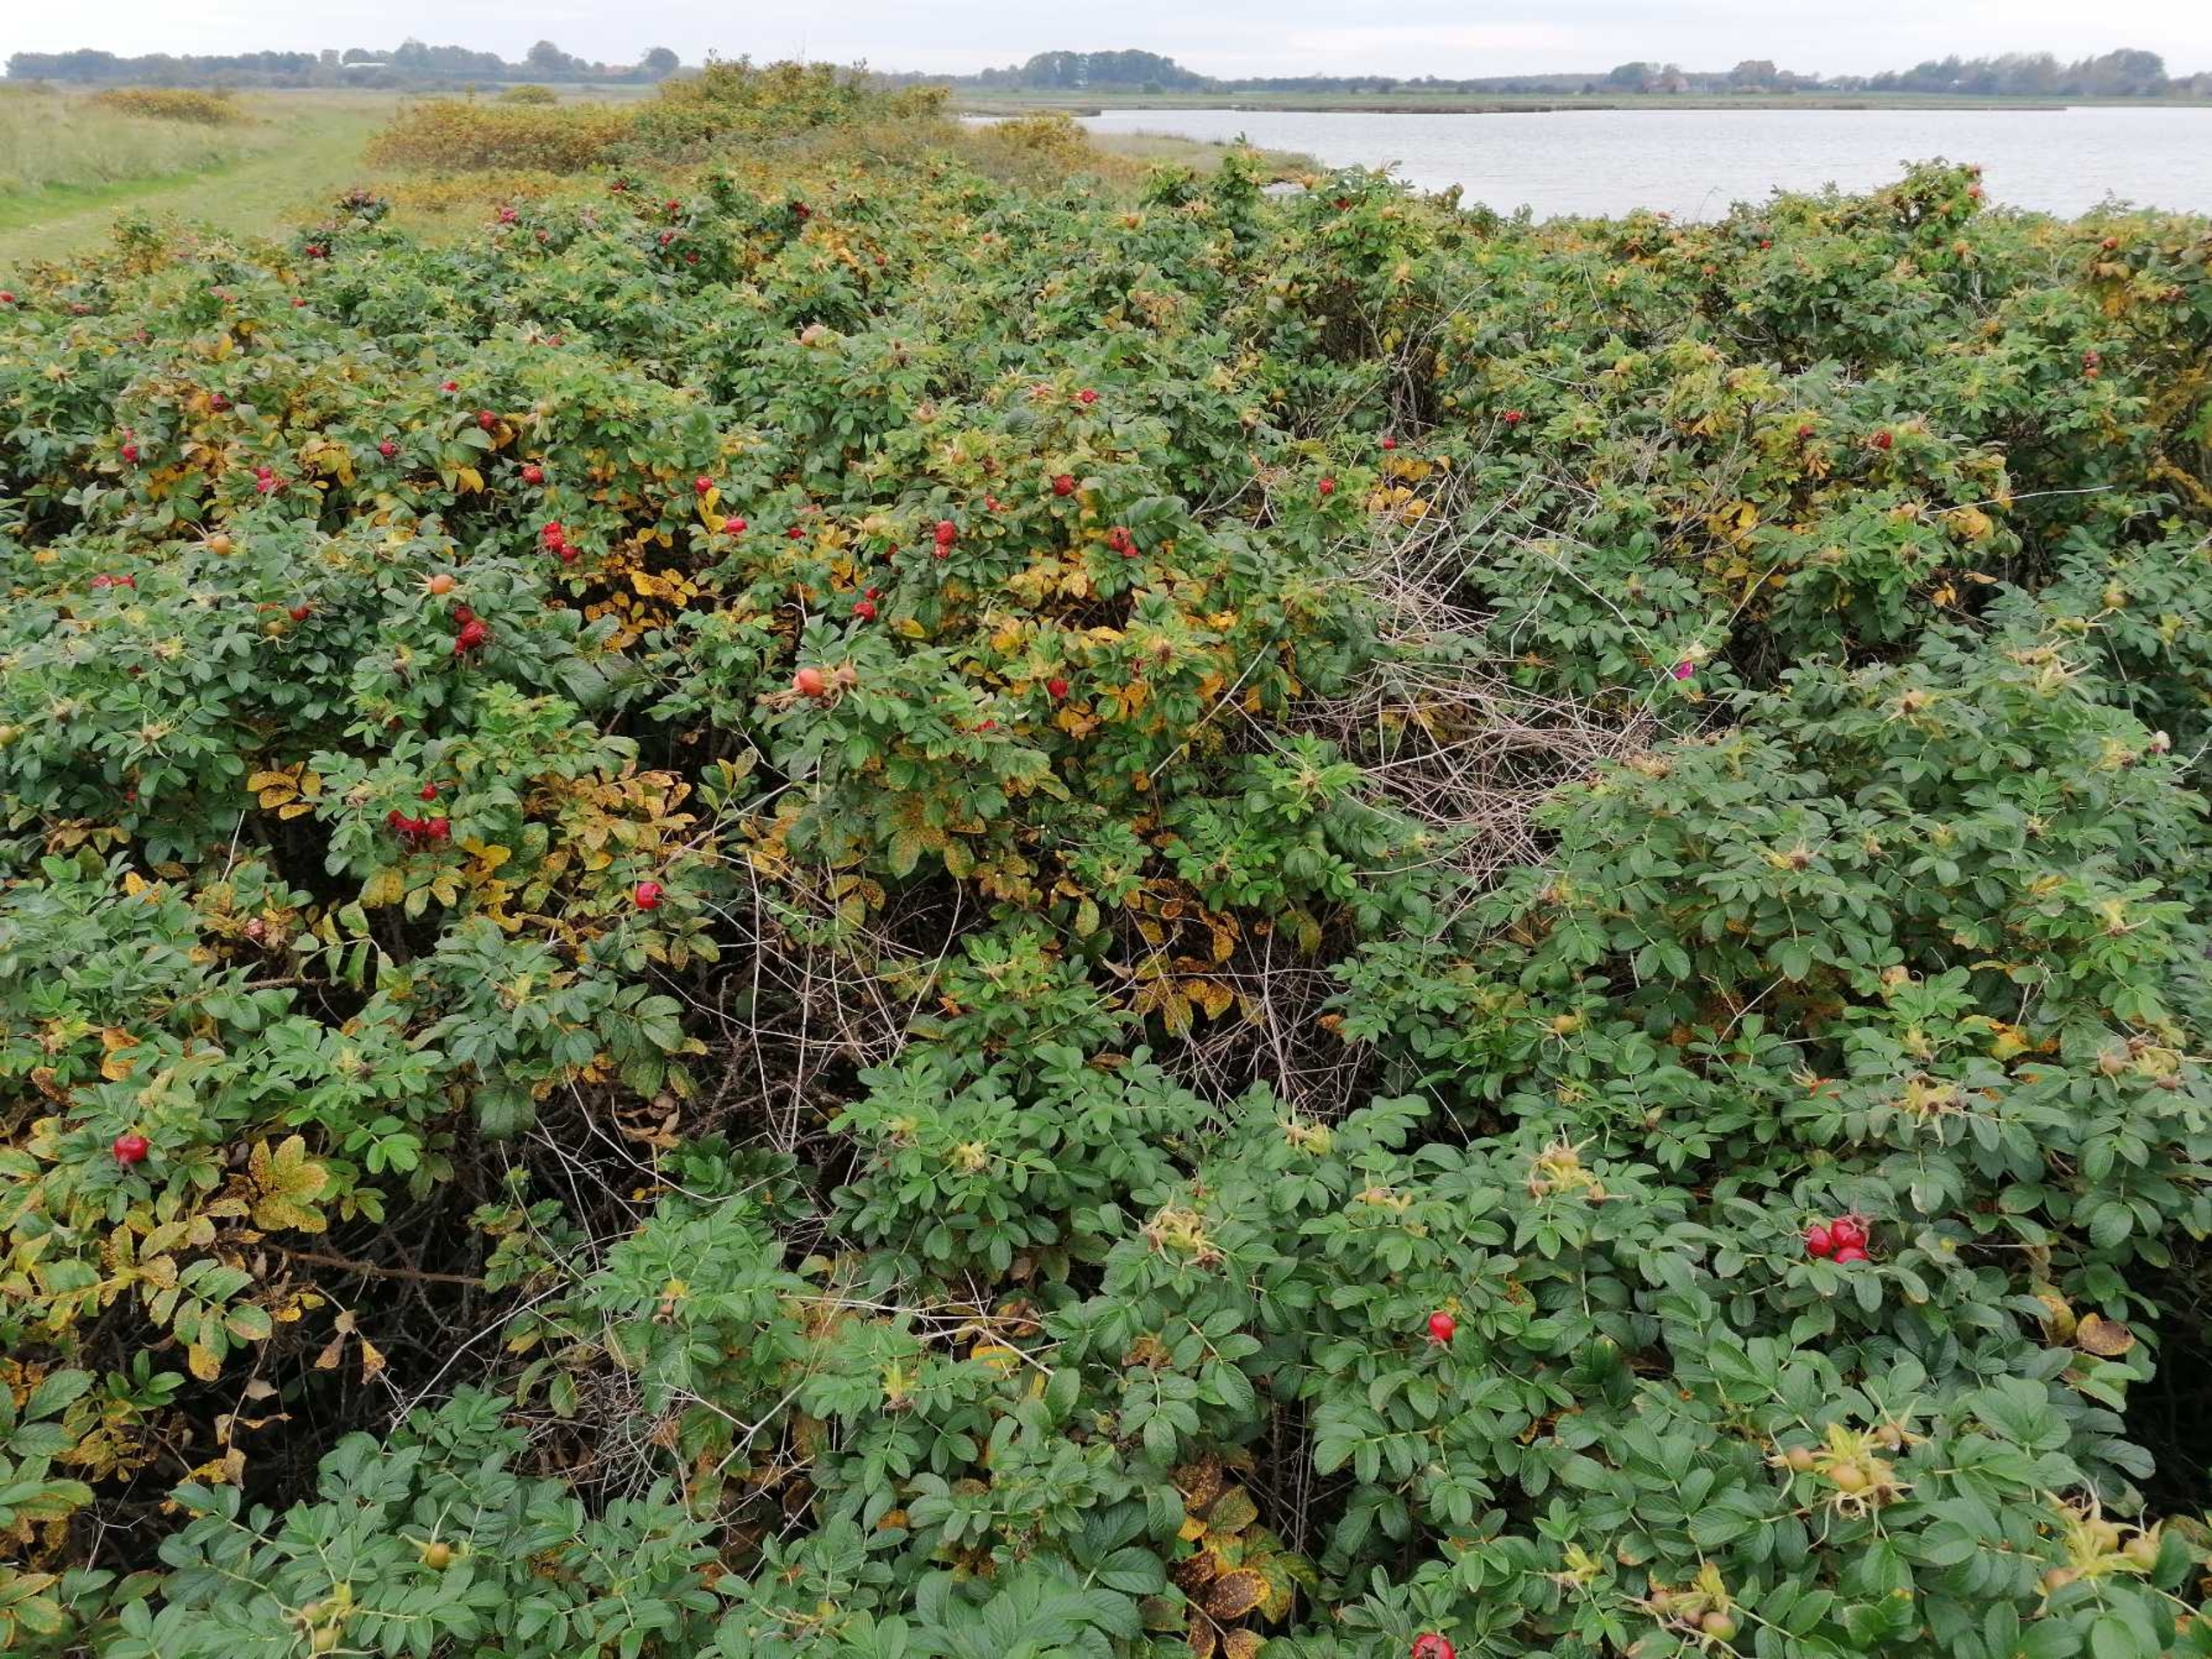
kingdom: Plantae
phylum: Tracheophyta
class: Magnoliopsida
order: Rosales
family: Rosaceae
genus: Rosa
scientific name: Rosa rugosa
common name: Rynket rose
